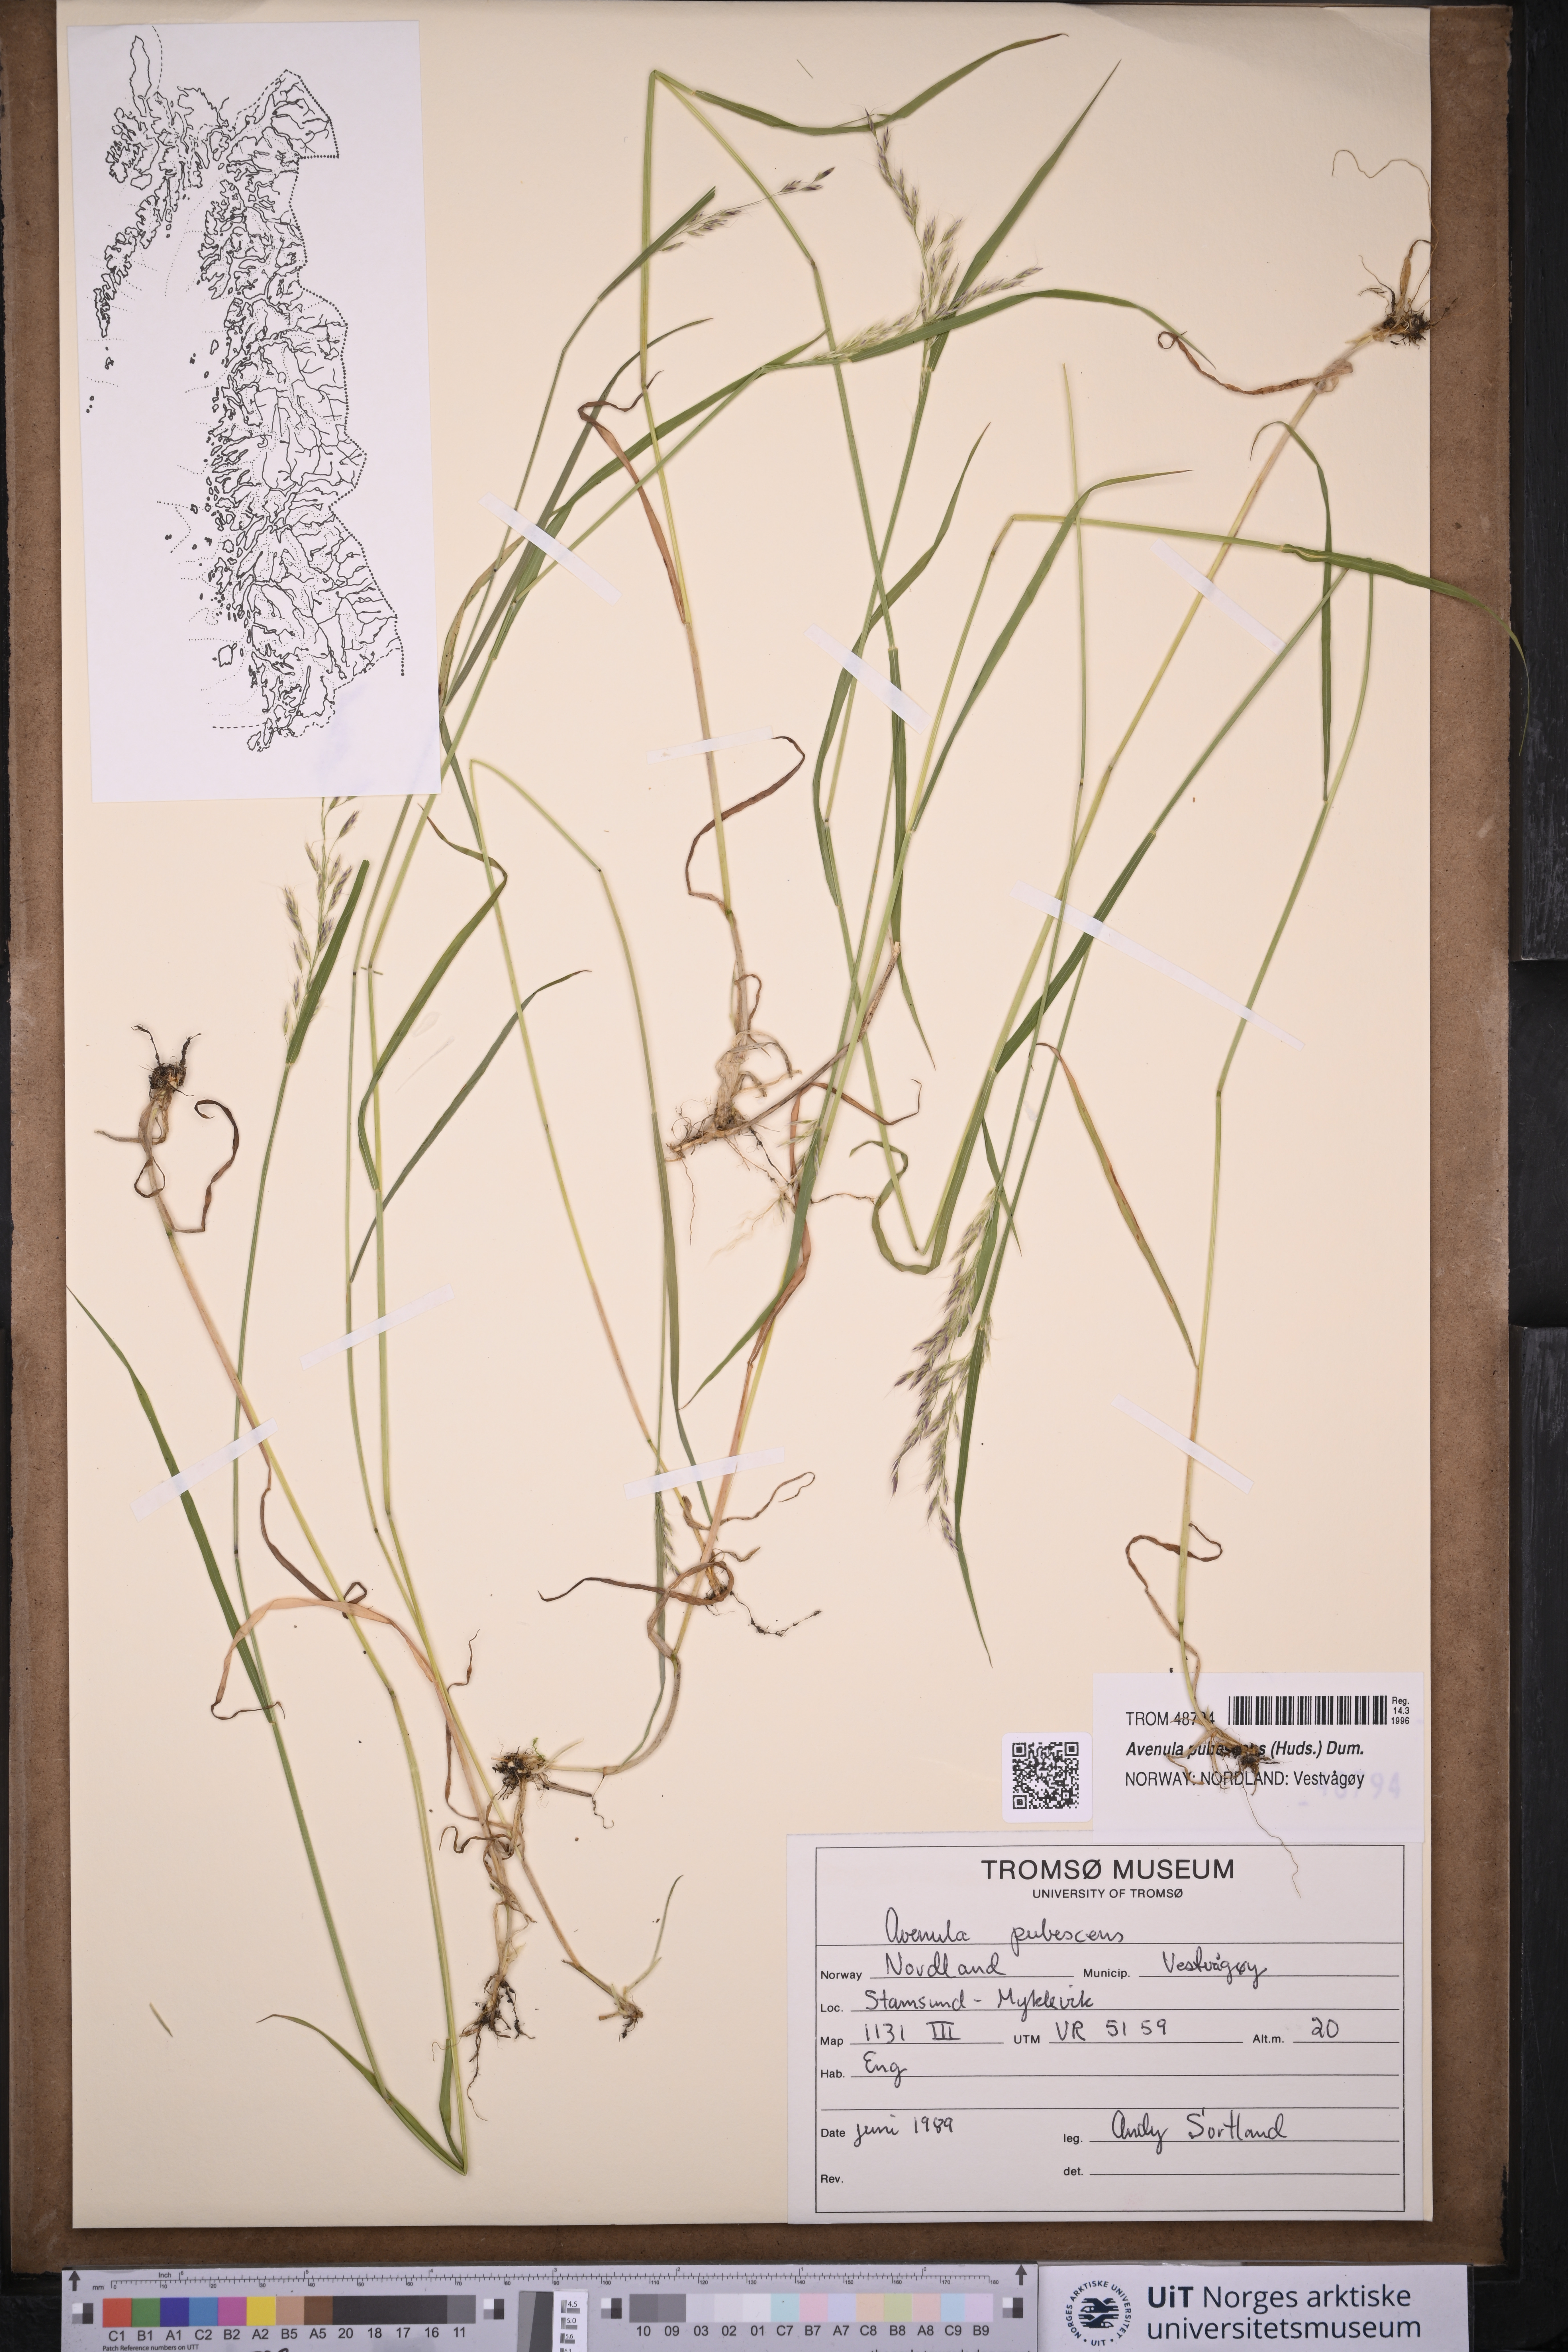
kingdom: Plantae
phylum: Tracheophyta
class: Liliopsida
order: Poales
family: Poaceae
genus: Avenula
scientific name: Avenula pubescens
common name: Downy alpine oatgrass
